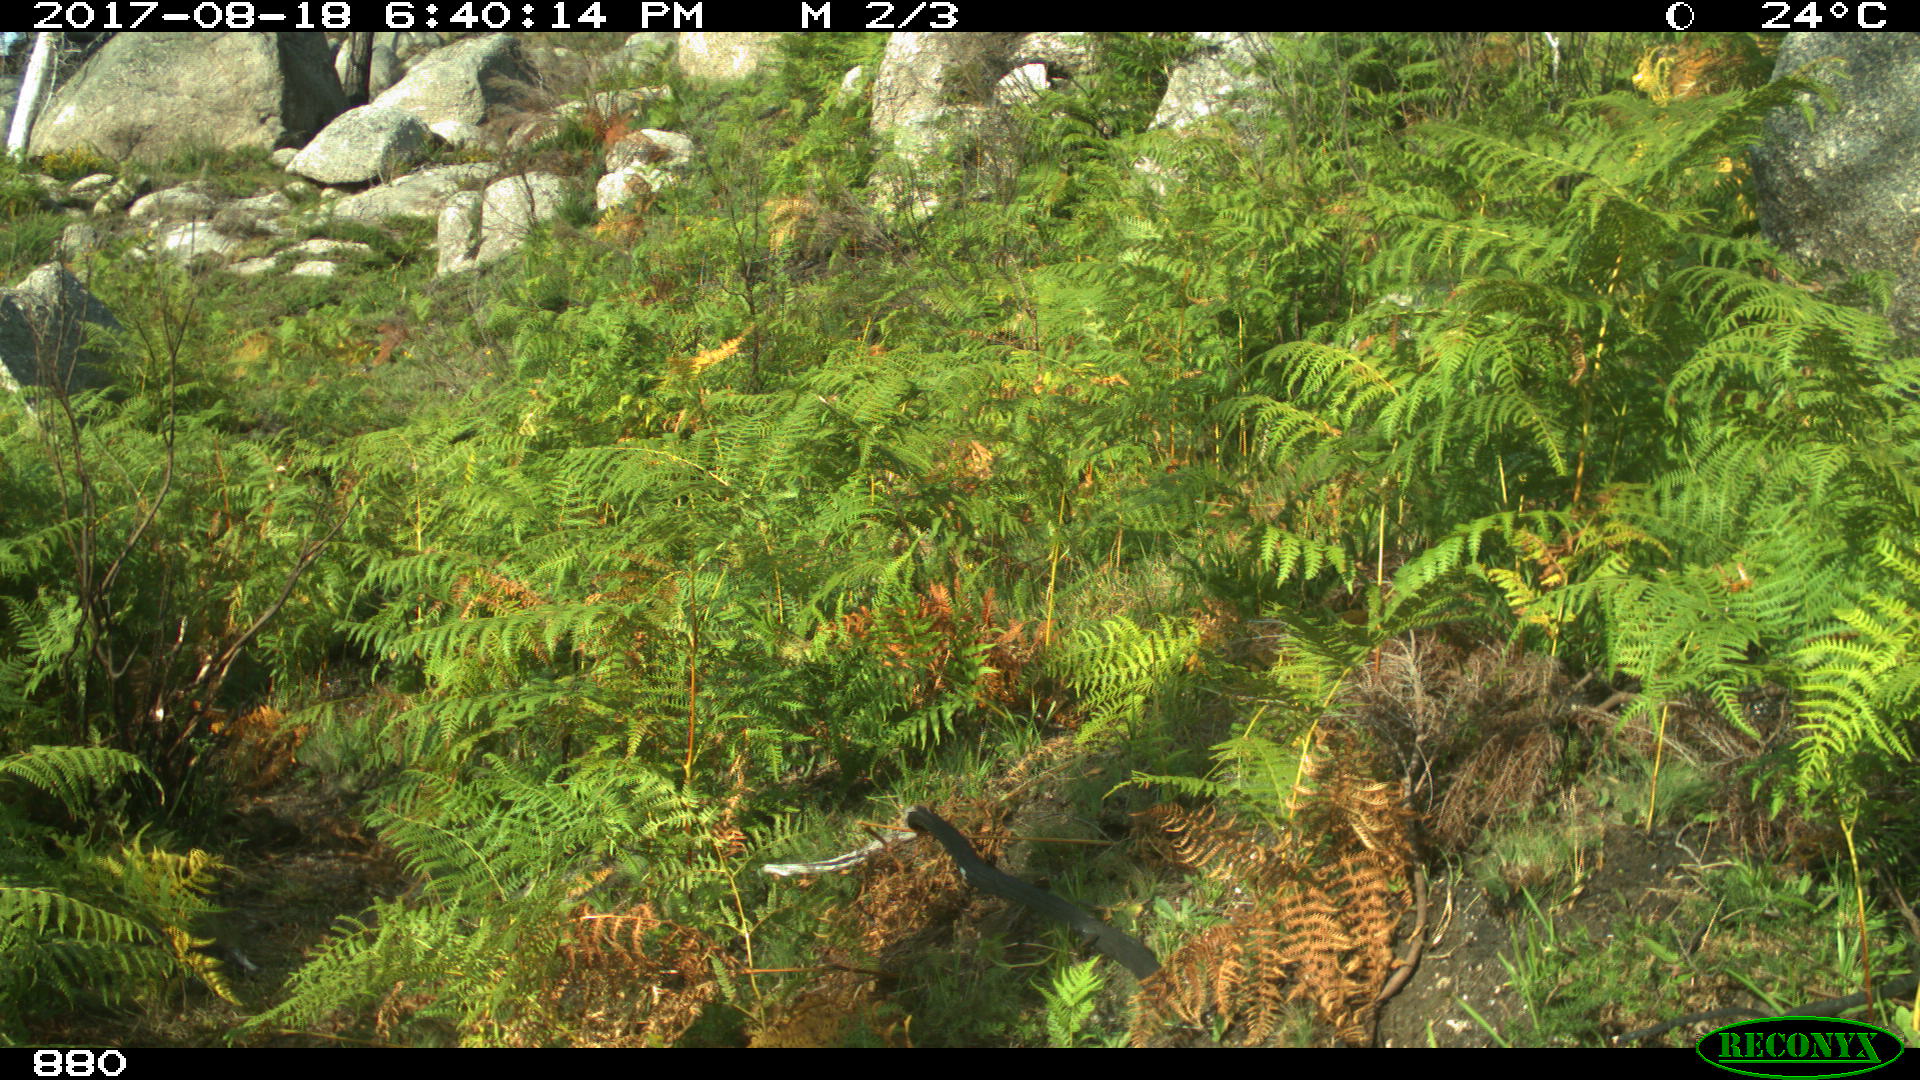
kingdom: Animalia
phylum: Chordata
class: Mammalia
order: Perissodactyla
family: Equidae
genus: Equus
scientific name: Equus caballus
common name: Horse
